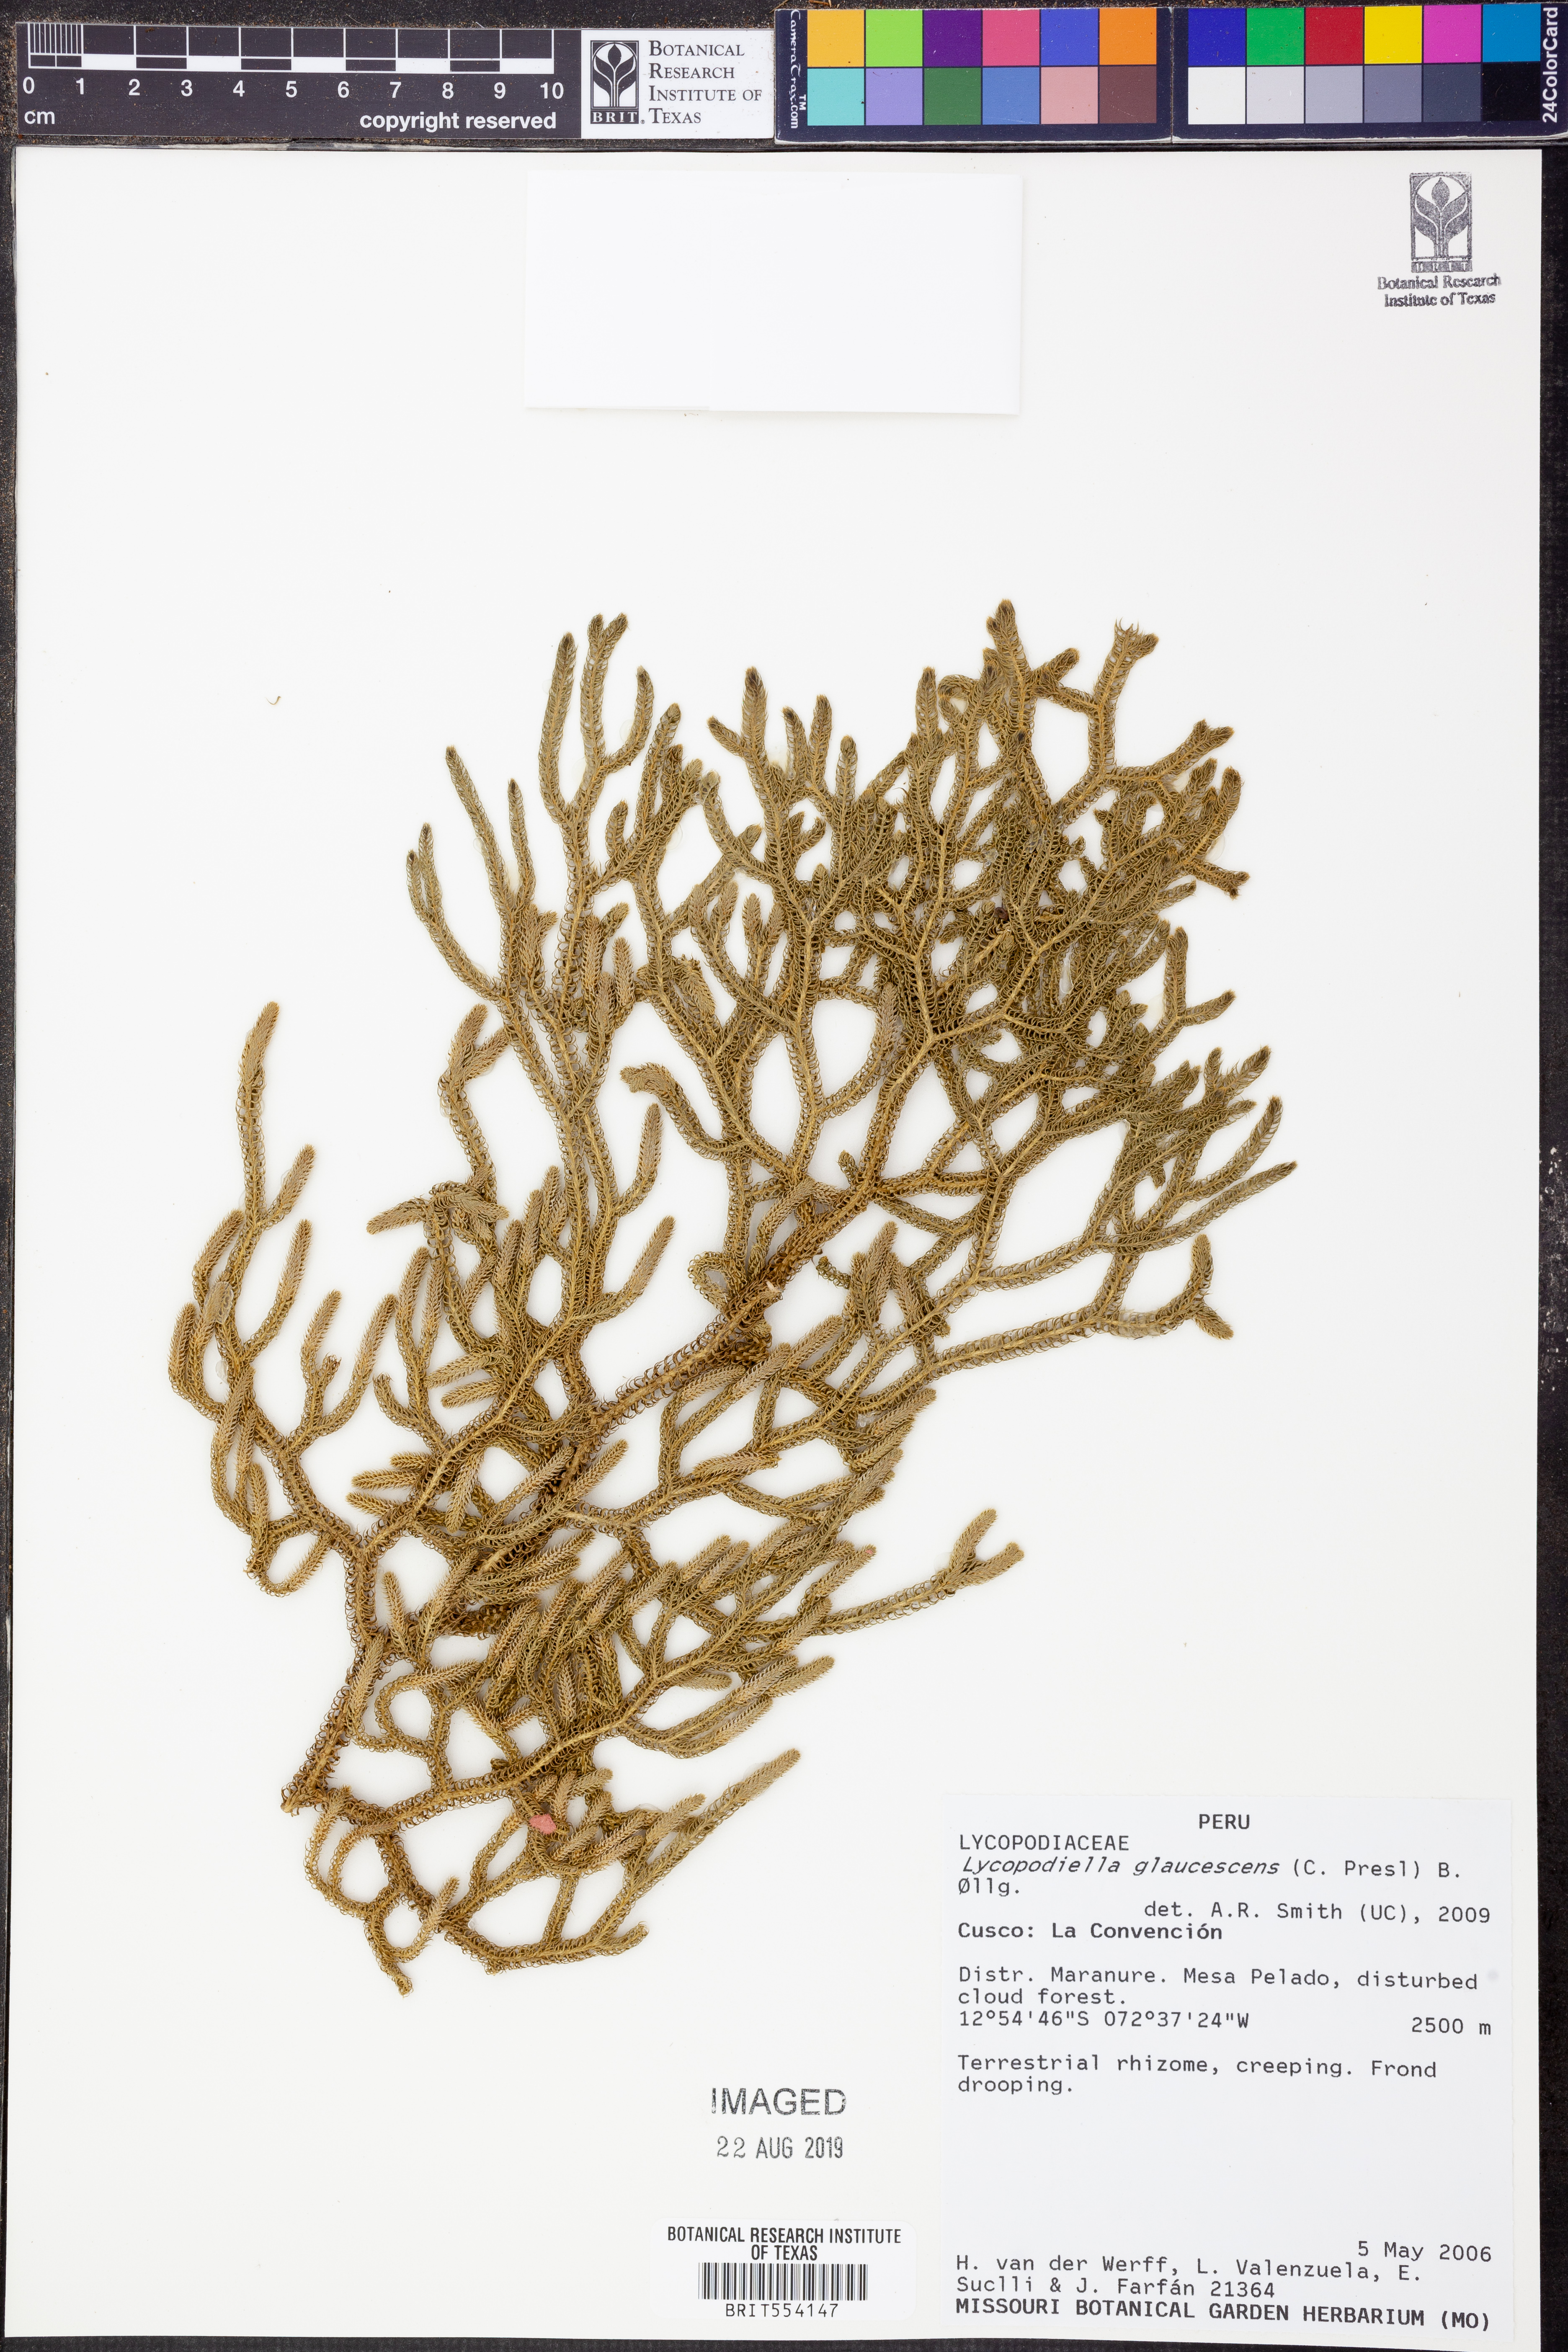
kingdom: Plantae
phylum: Tracheophyta
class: Lycopodiopsida
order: Lycopodiales
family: Lycopodiaceae
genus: Palhinhaea
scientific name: Palhinhaea glaucescens
